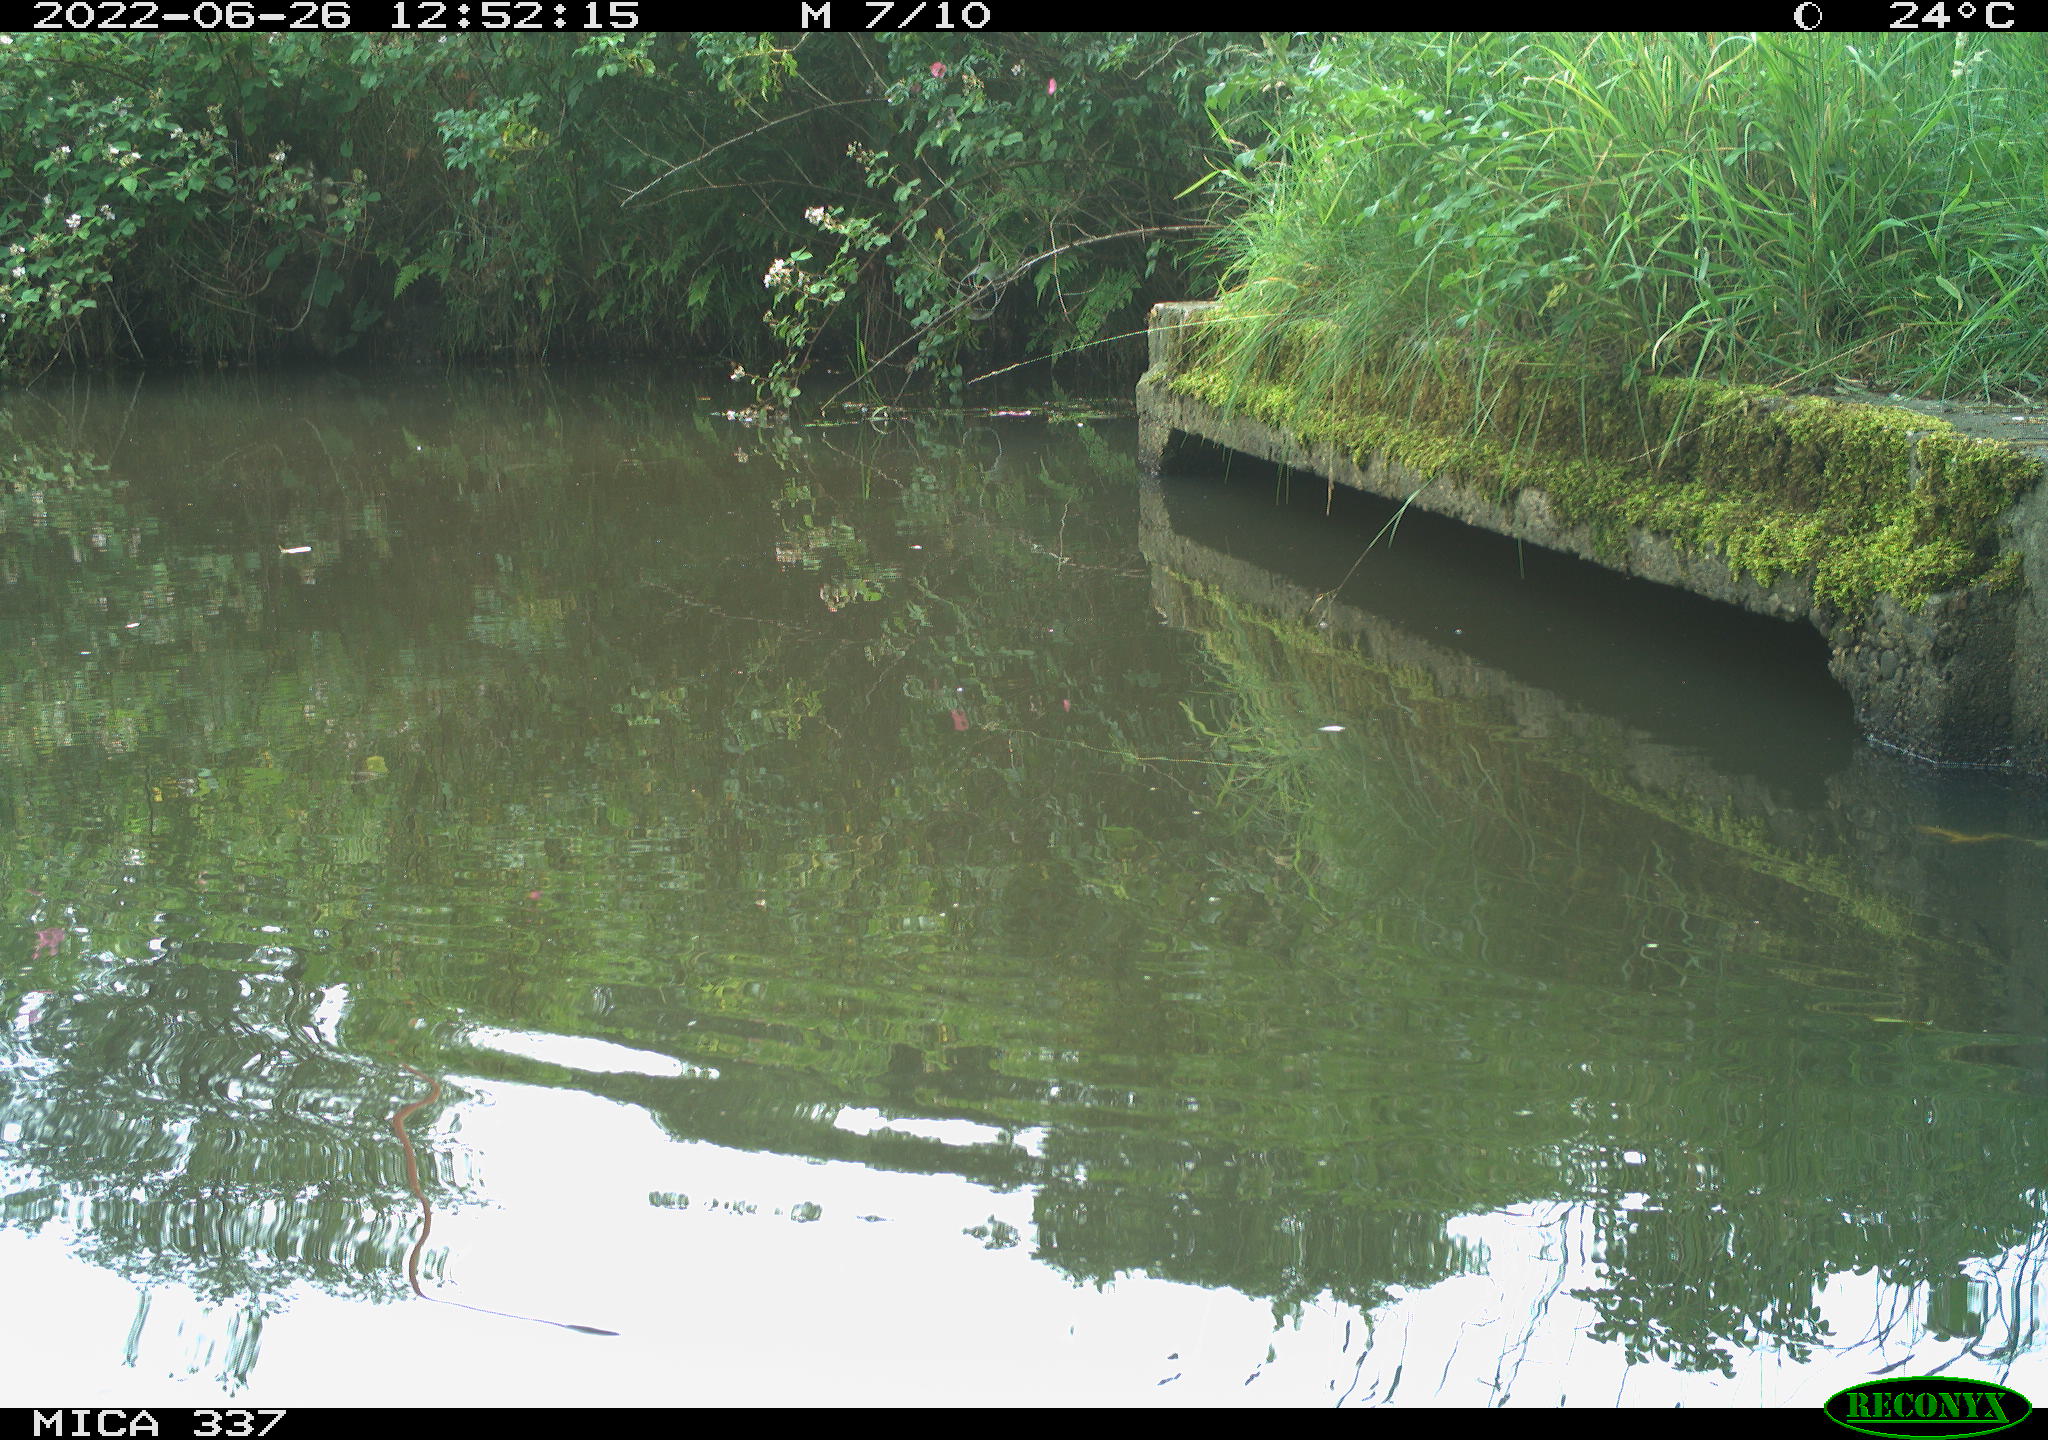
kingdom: Animalia
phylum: Chordata
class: Aves
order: Gruiformes
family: Rallidae
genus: Gallinula
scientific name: Gallinula chloropus
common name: Common moorhen
